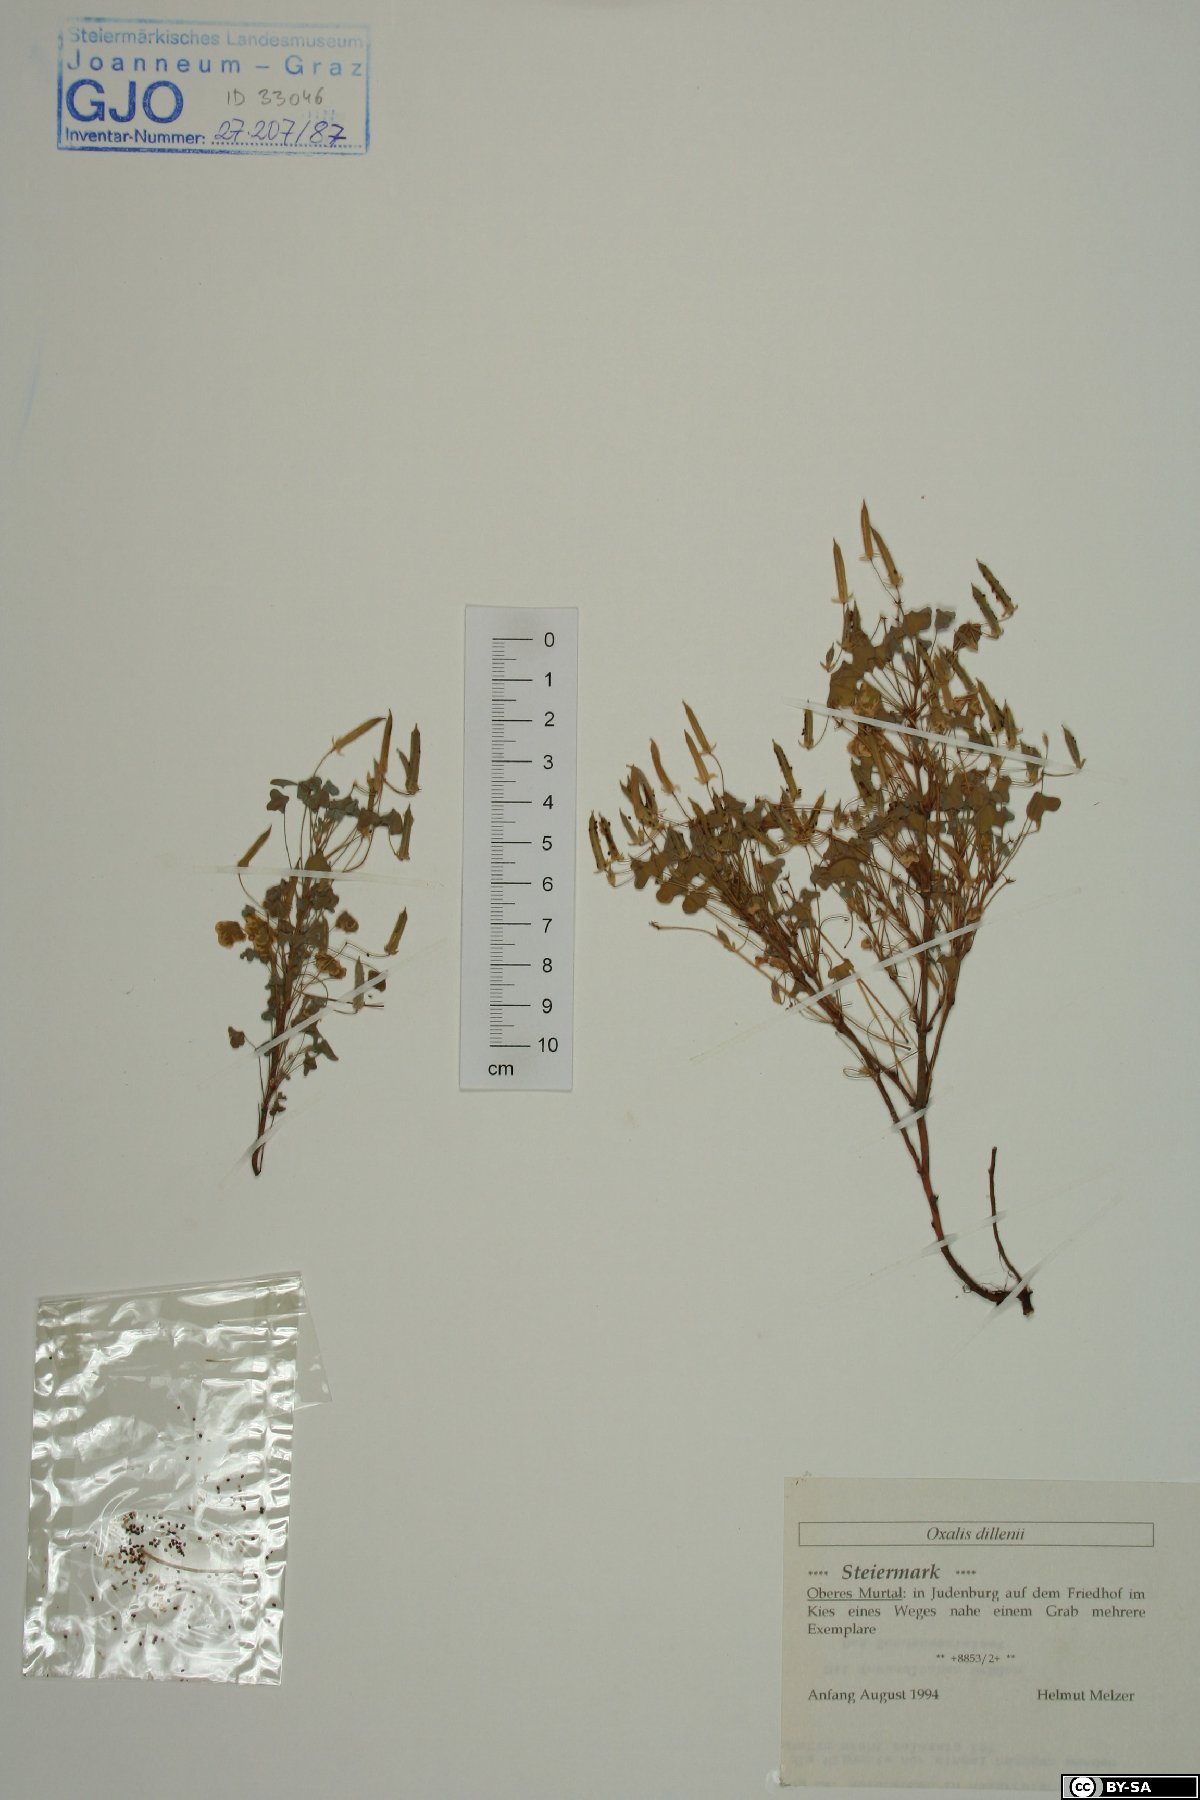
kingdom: Plantae
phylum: Tracheophyta
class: Magnoliopsida
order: Oxalidales
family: Oxalidaceae
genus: Oxalis
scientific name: Oxalis dillenii
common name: Sussex yellow-sorrel
